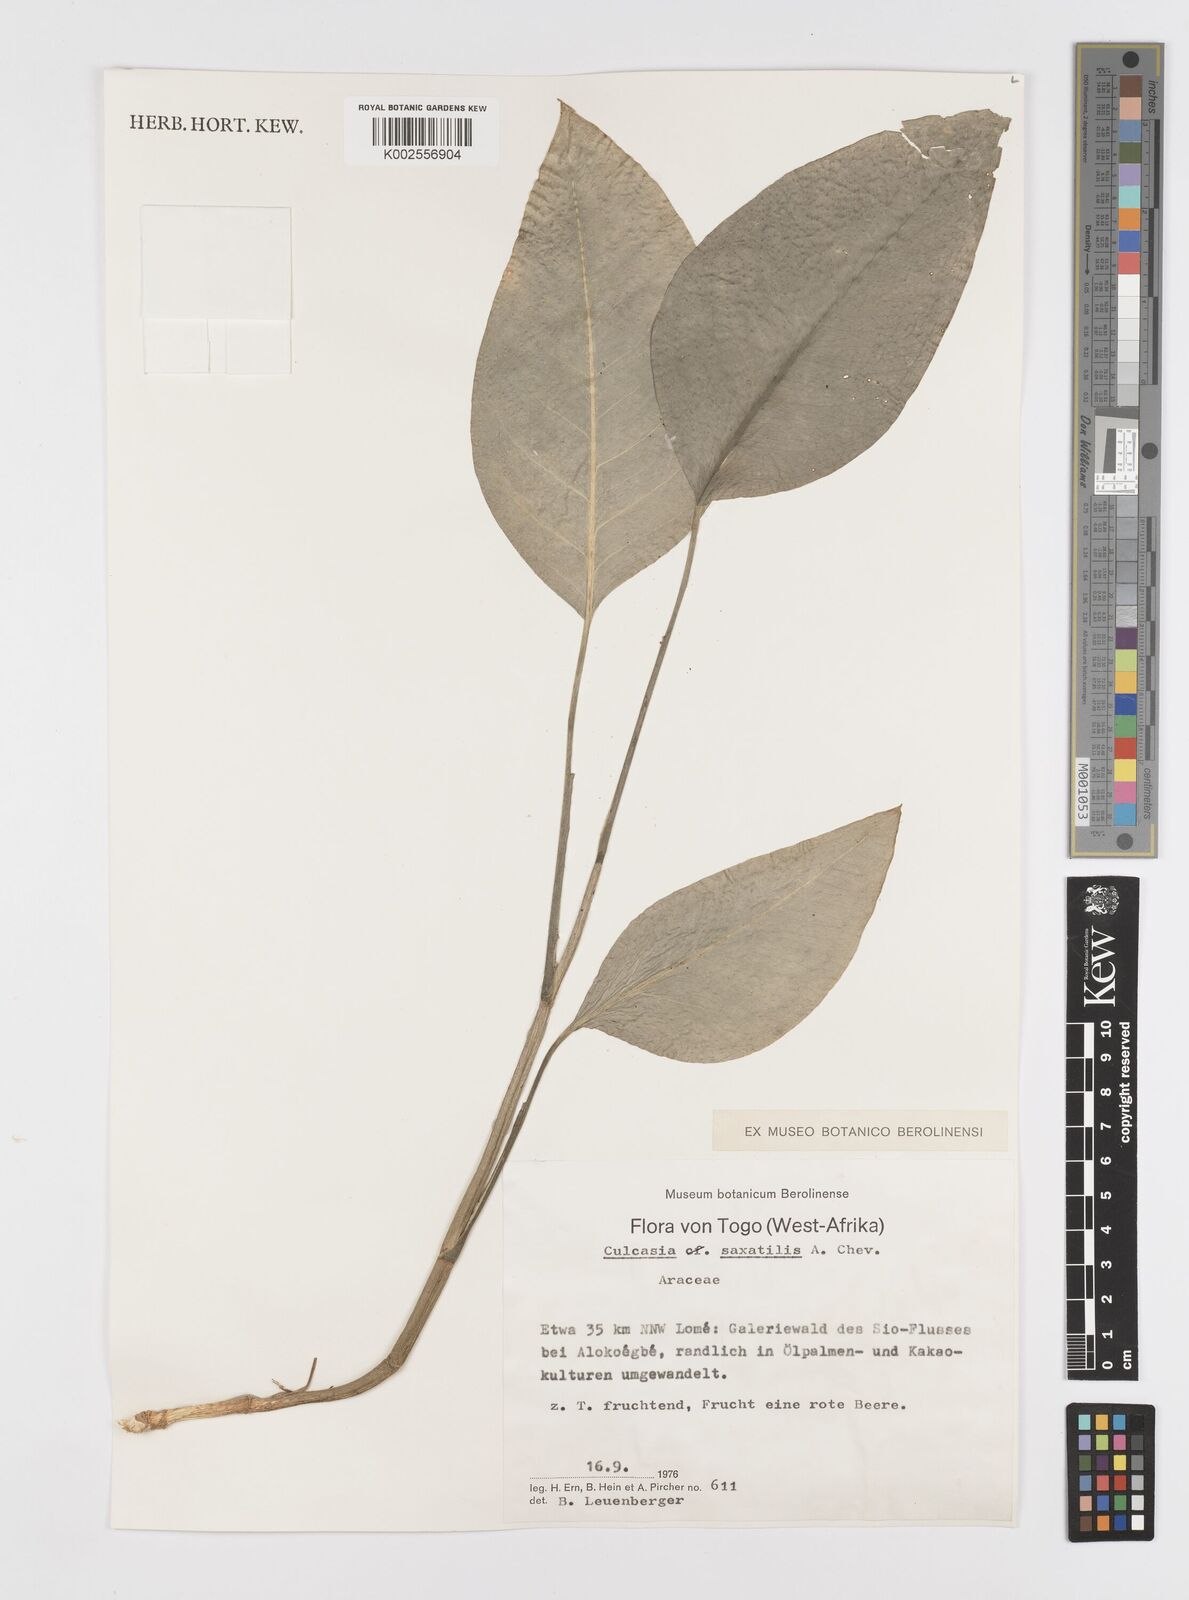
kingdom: Plantae
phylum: Tracheophyta
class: Liliopsida
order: Alismatales
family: Araceae
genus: Culcasia
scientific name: Culcasia scandens
